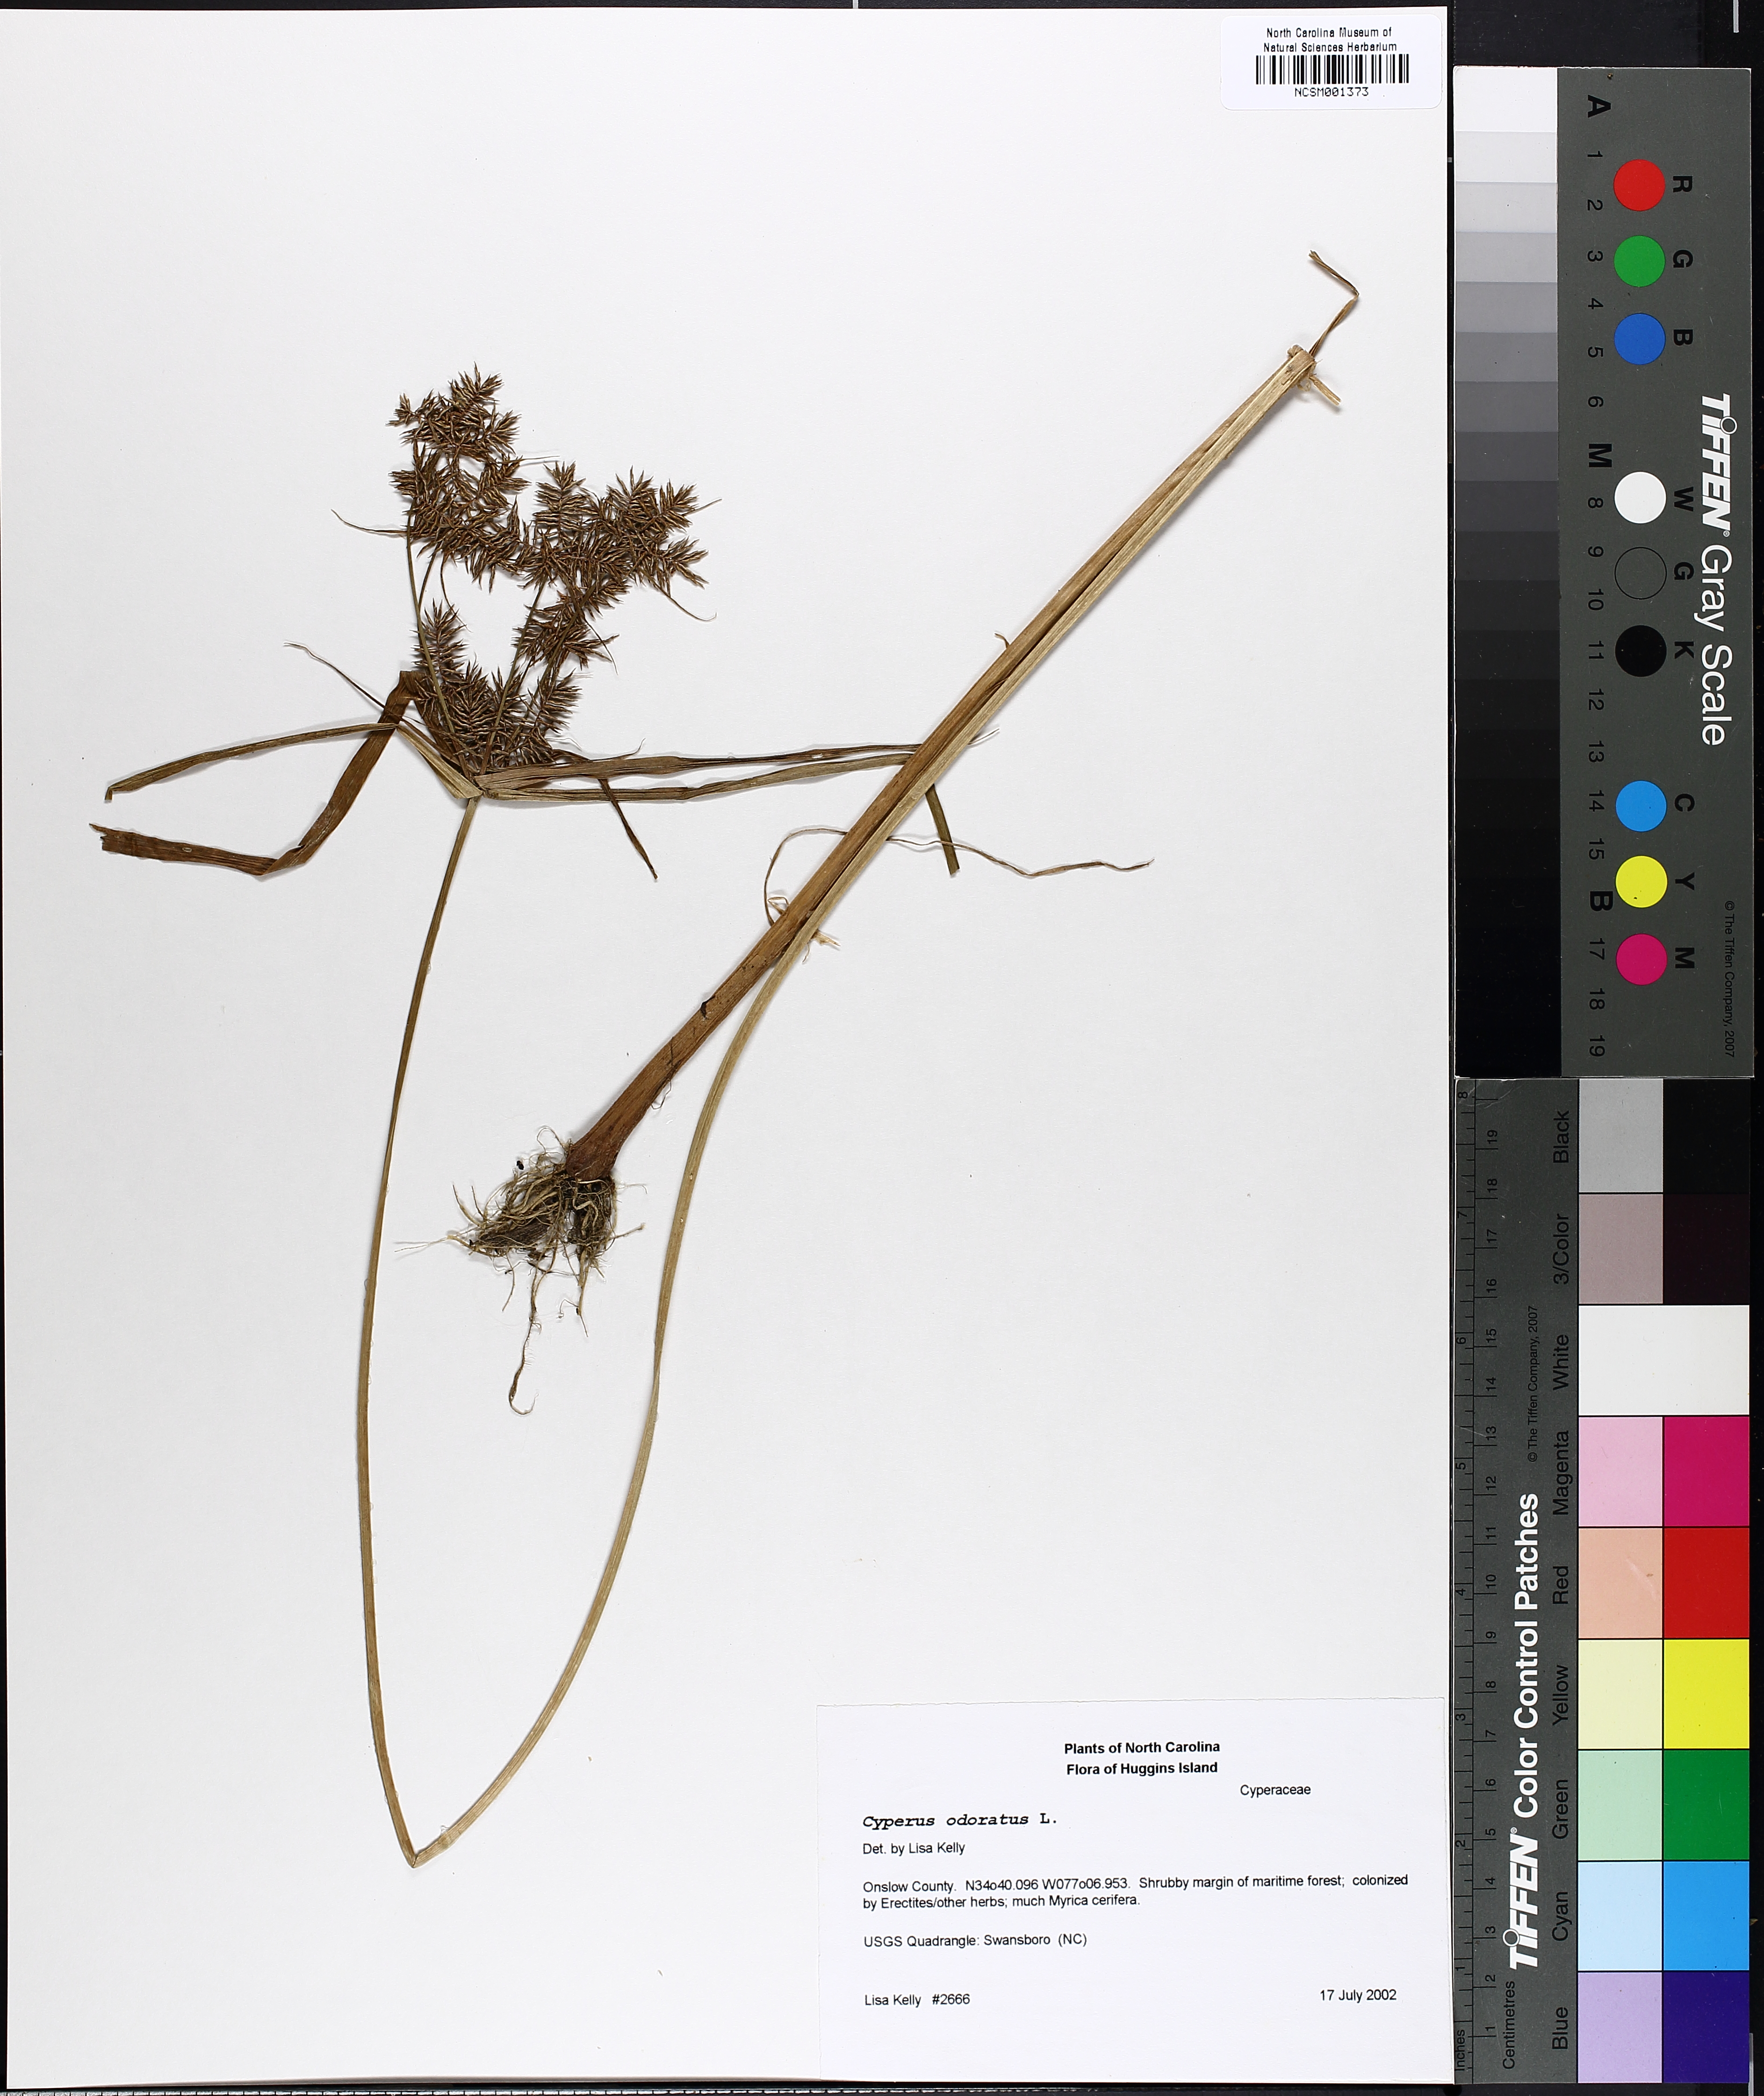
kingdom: Plantae
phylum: Tracheophyta
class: Liliopsida
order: Poales
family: Cyperaceae
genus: Cyperus
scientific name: Cyperus odoratus
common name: Fragrant flatsedge
